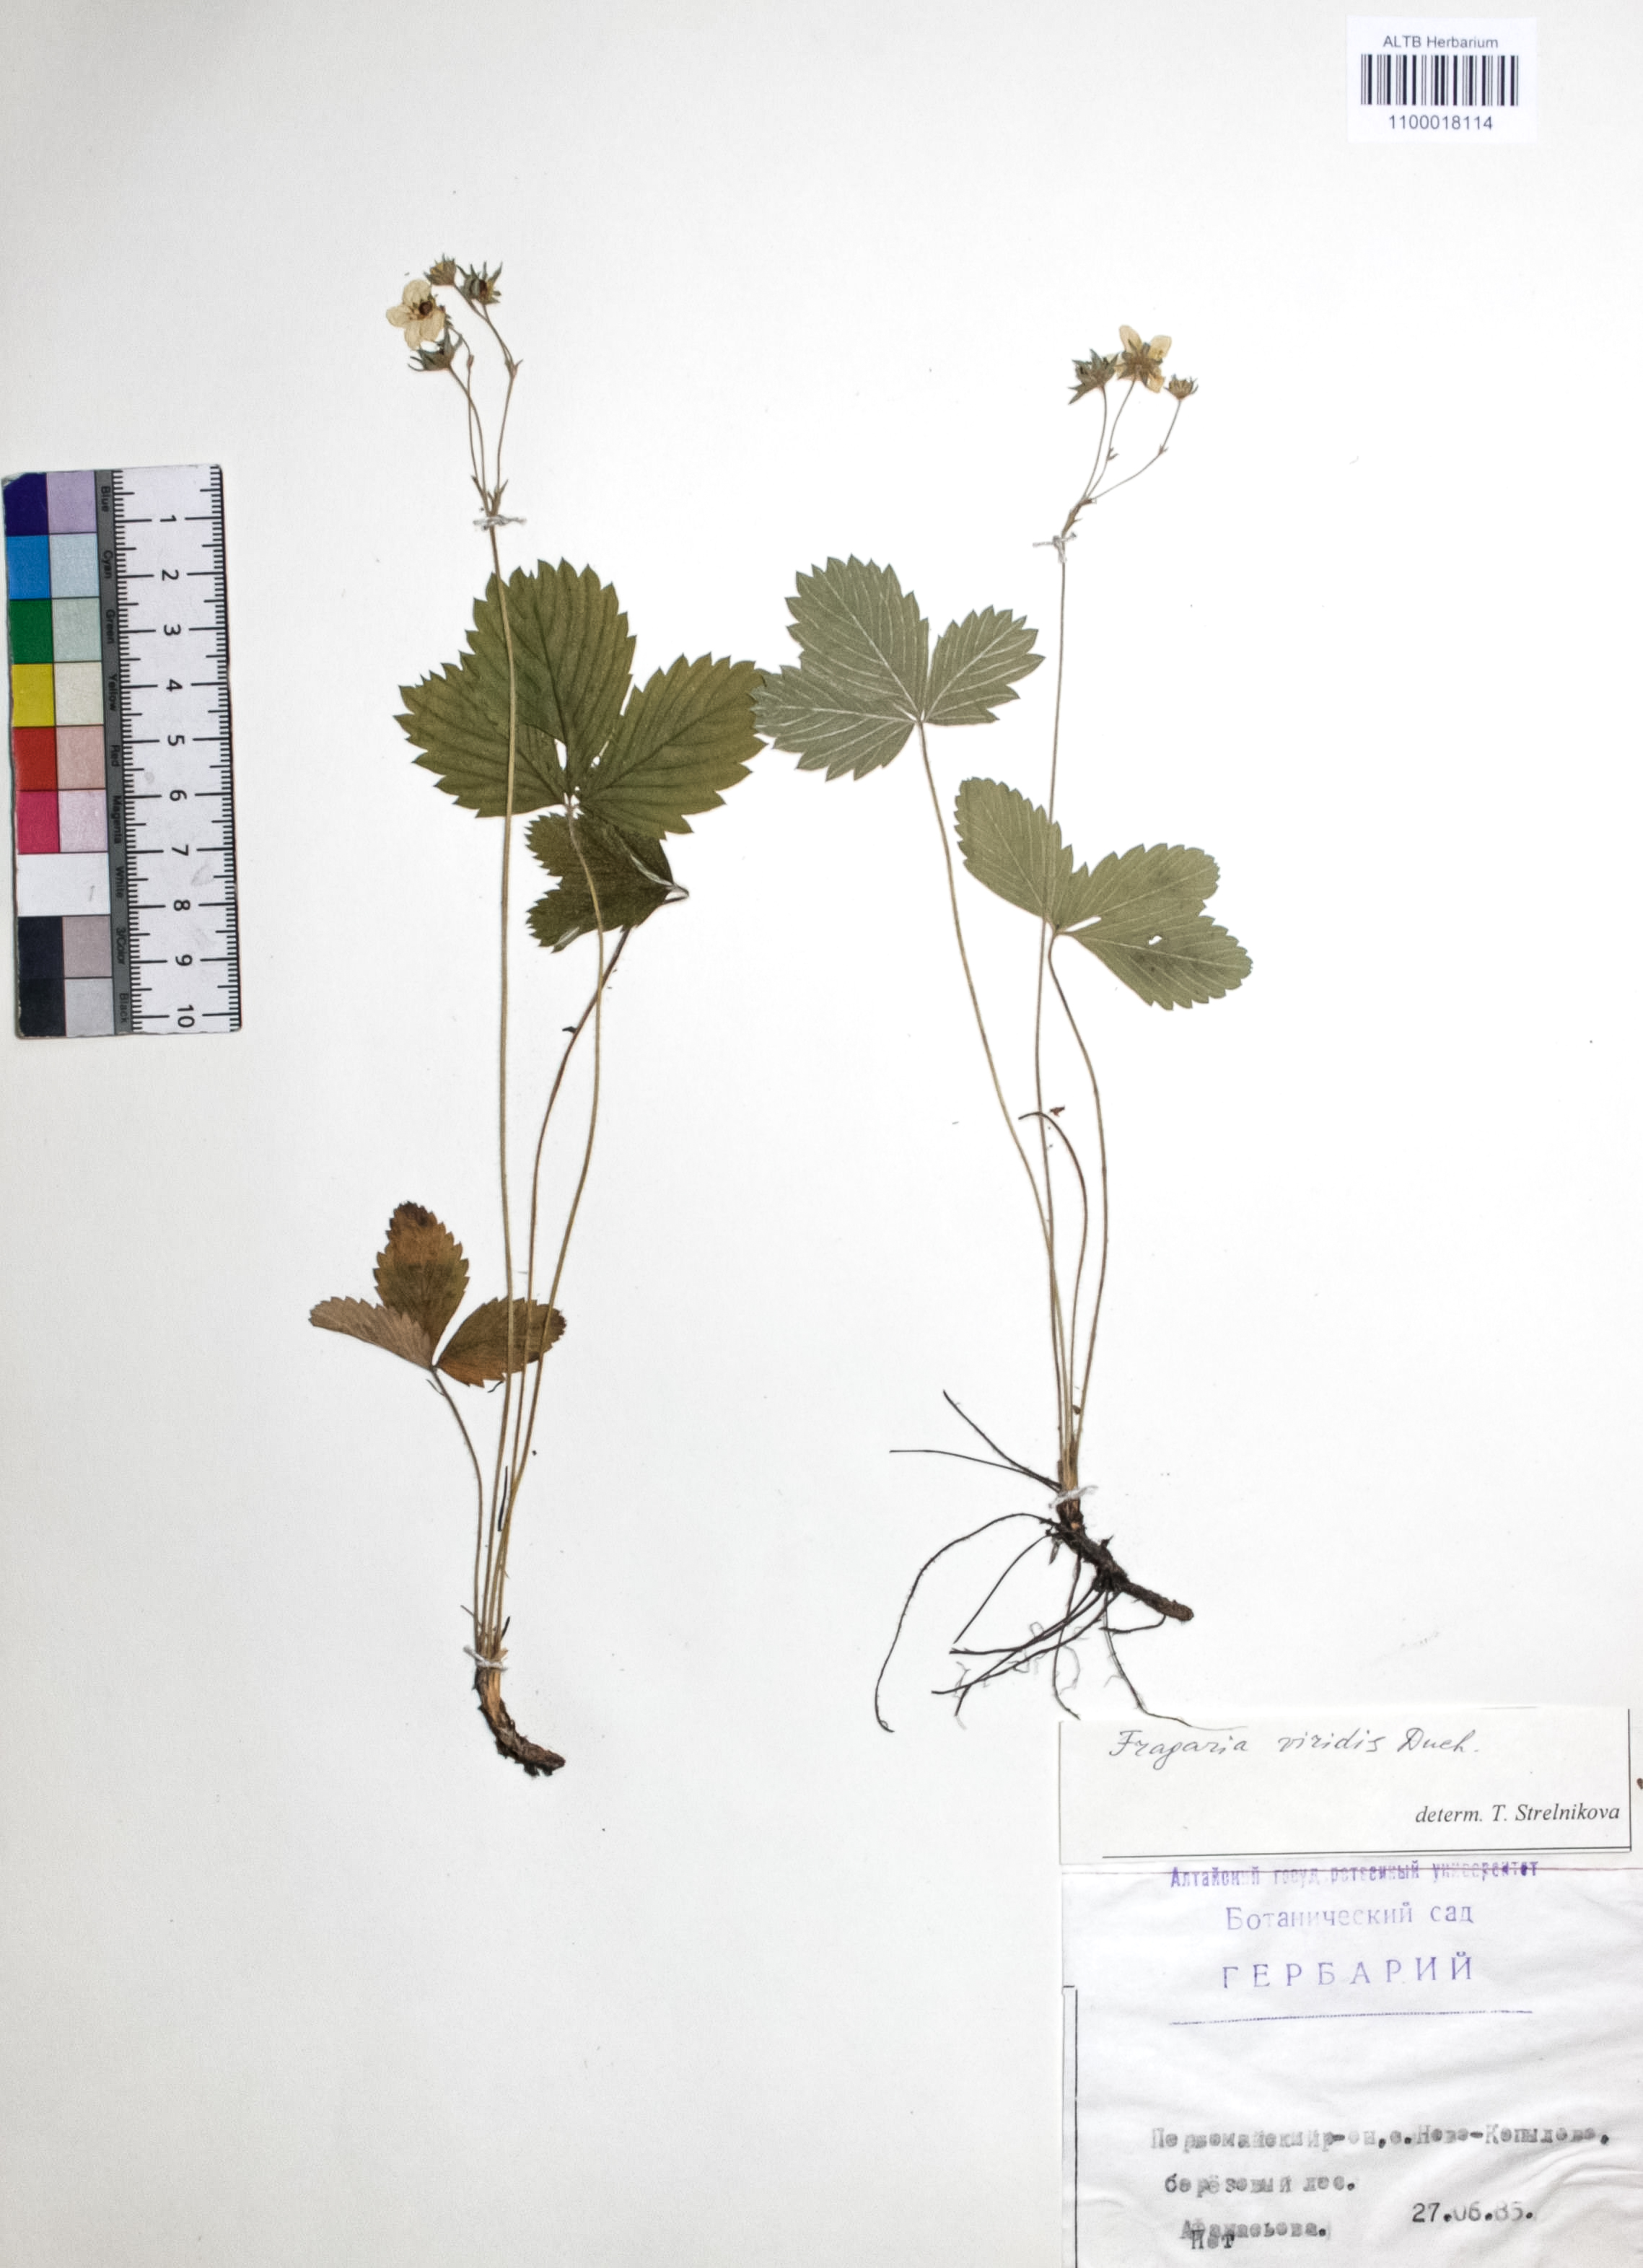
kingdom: Plantae
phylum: Tracheophyta
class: Magnoliopsida
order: Rosales
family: Rosaceae
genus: Fragaria
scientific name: Fragaria viridis
